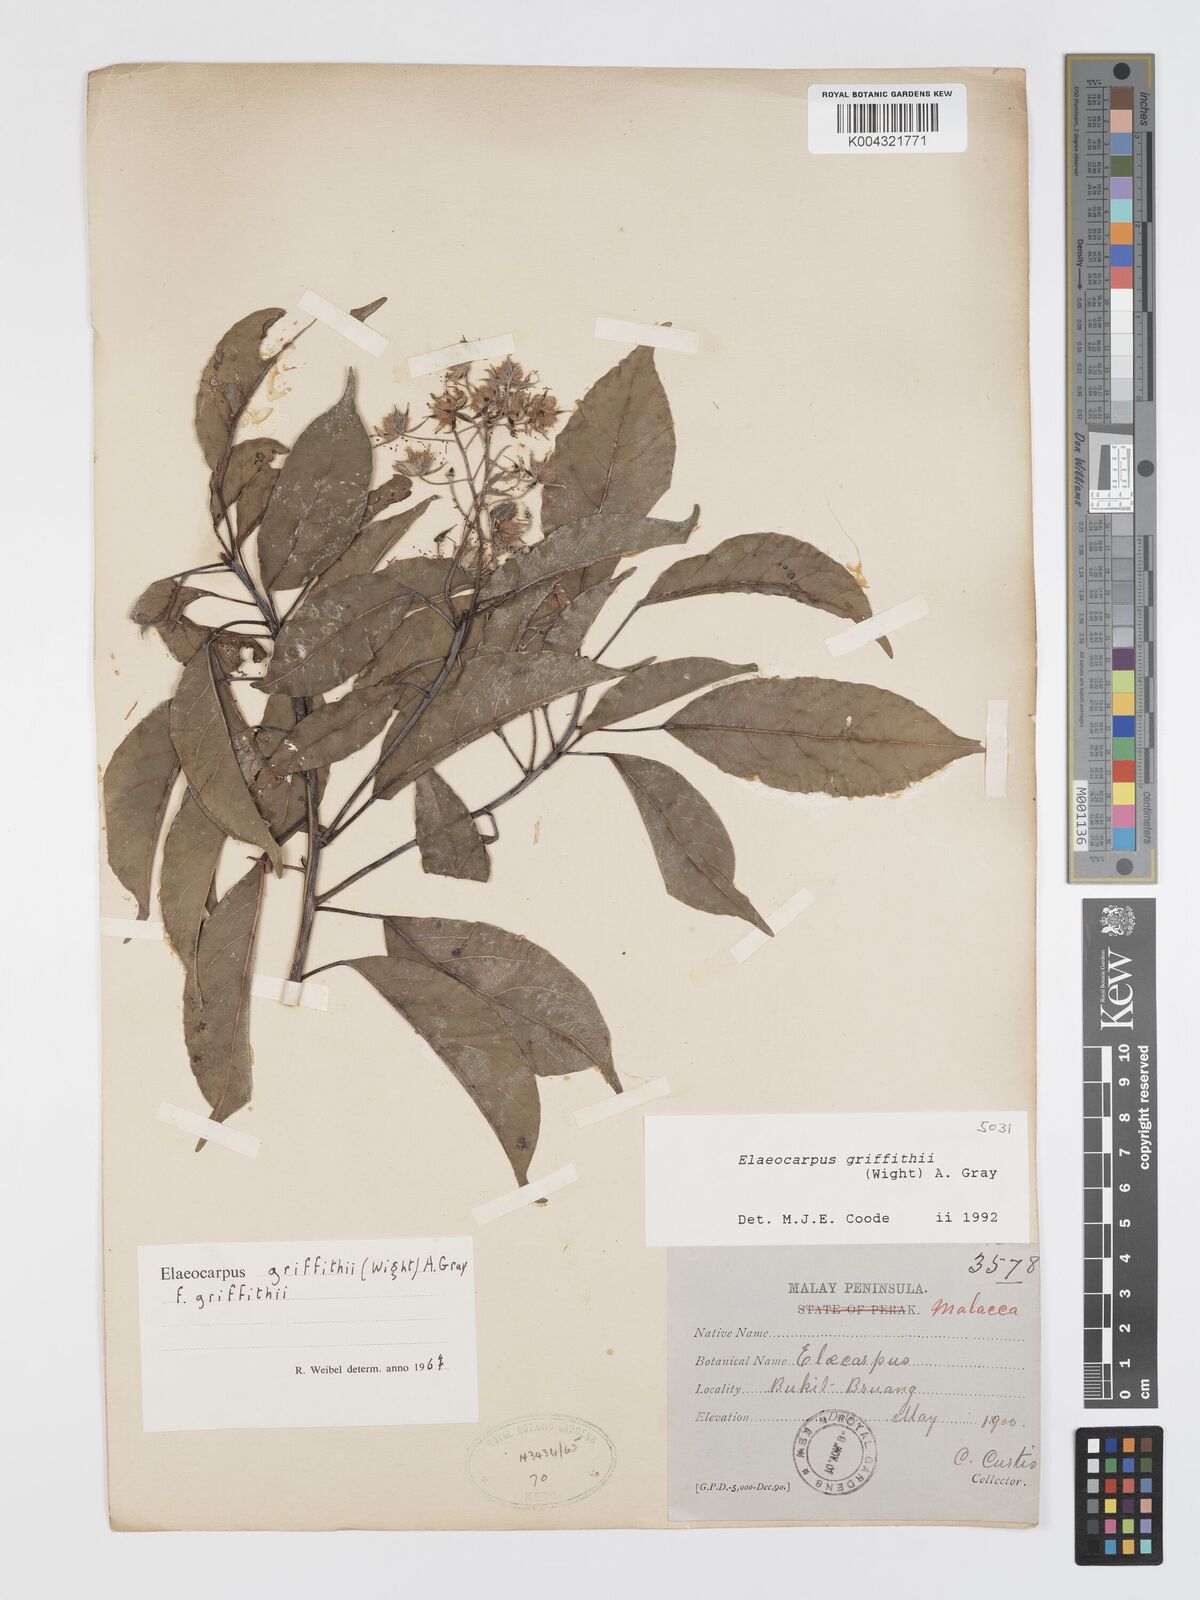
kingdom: Plantae
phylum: Tracheophyta
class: Magnoliopsida
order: Oxalidales
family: Elaeocarpaceae
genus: Elaeocarpus
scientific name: Elaeocarpus griffithii
